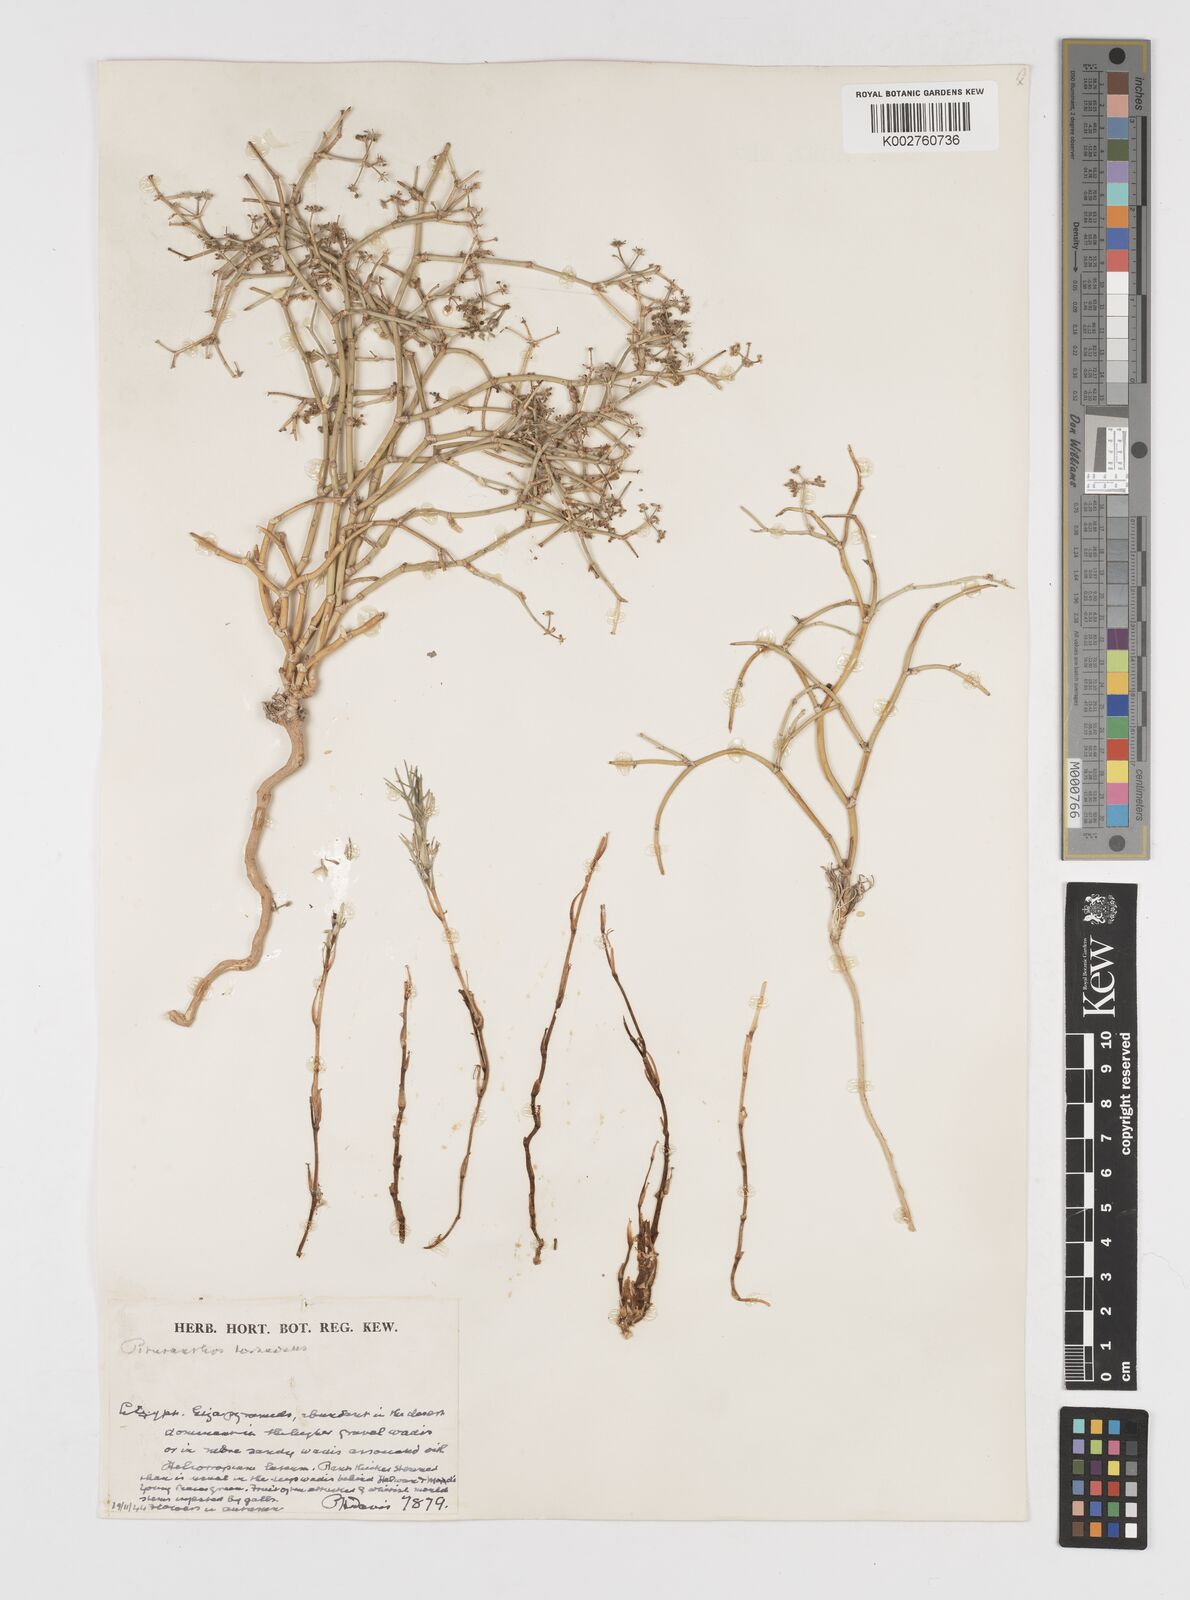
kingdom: Plantae
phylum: Tracheophyta
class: Magnoliopsida
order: Apiales
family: Apiaceae
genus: Deverra
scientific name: Deverra tortuosa
